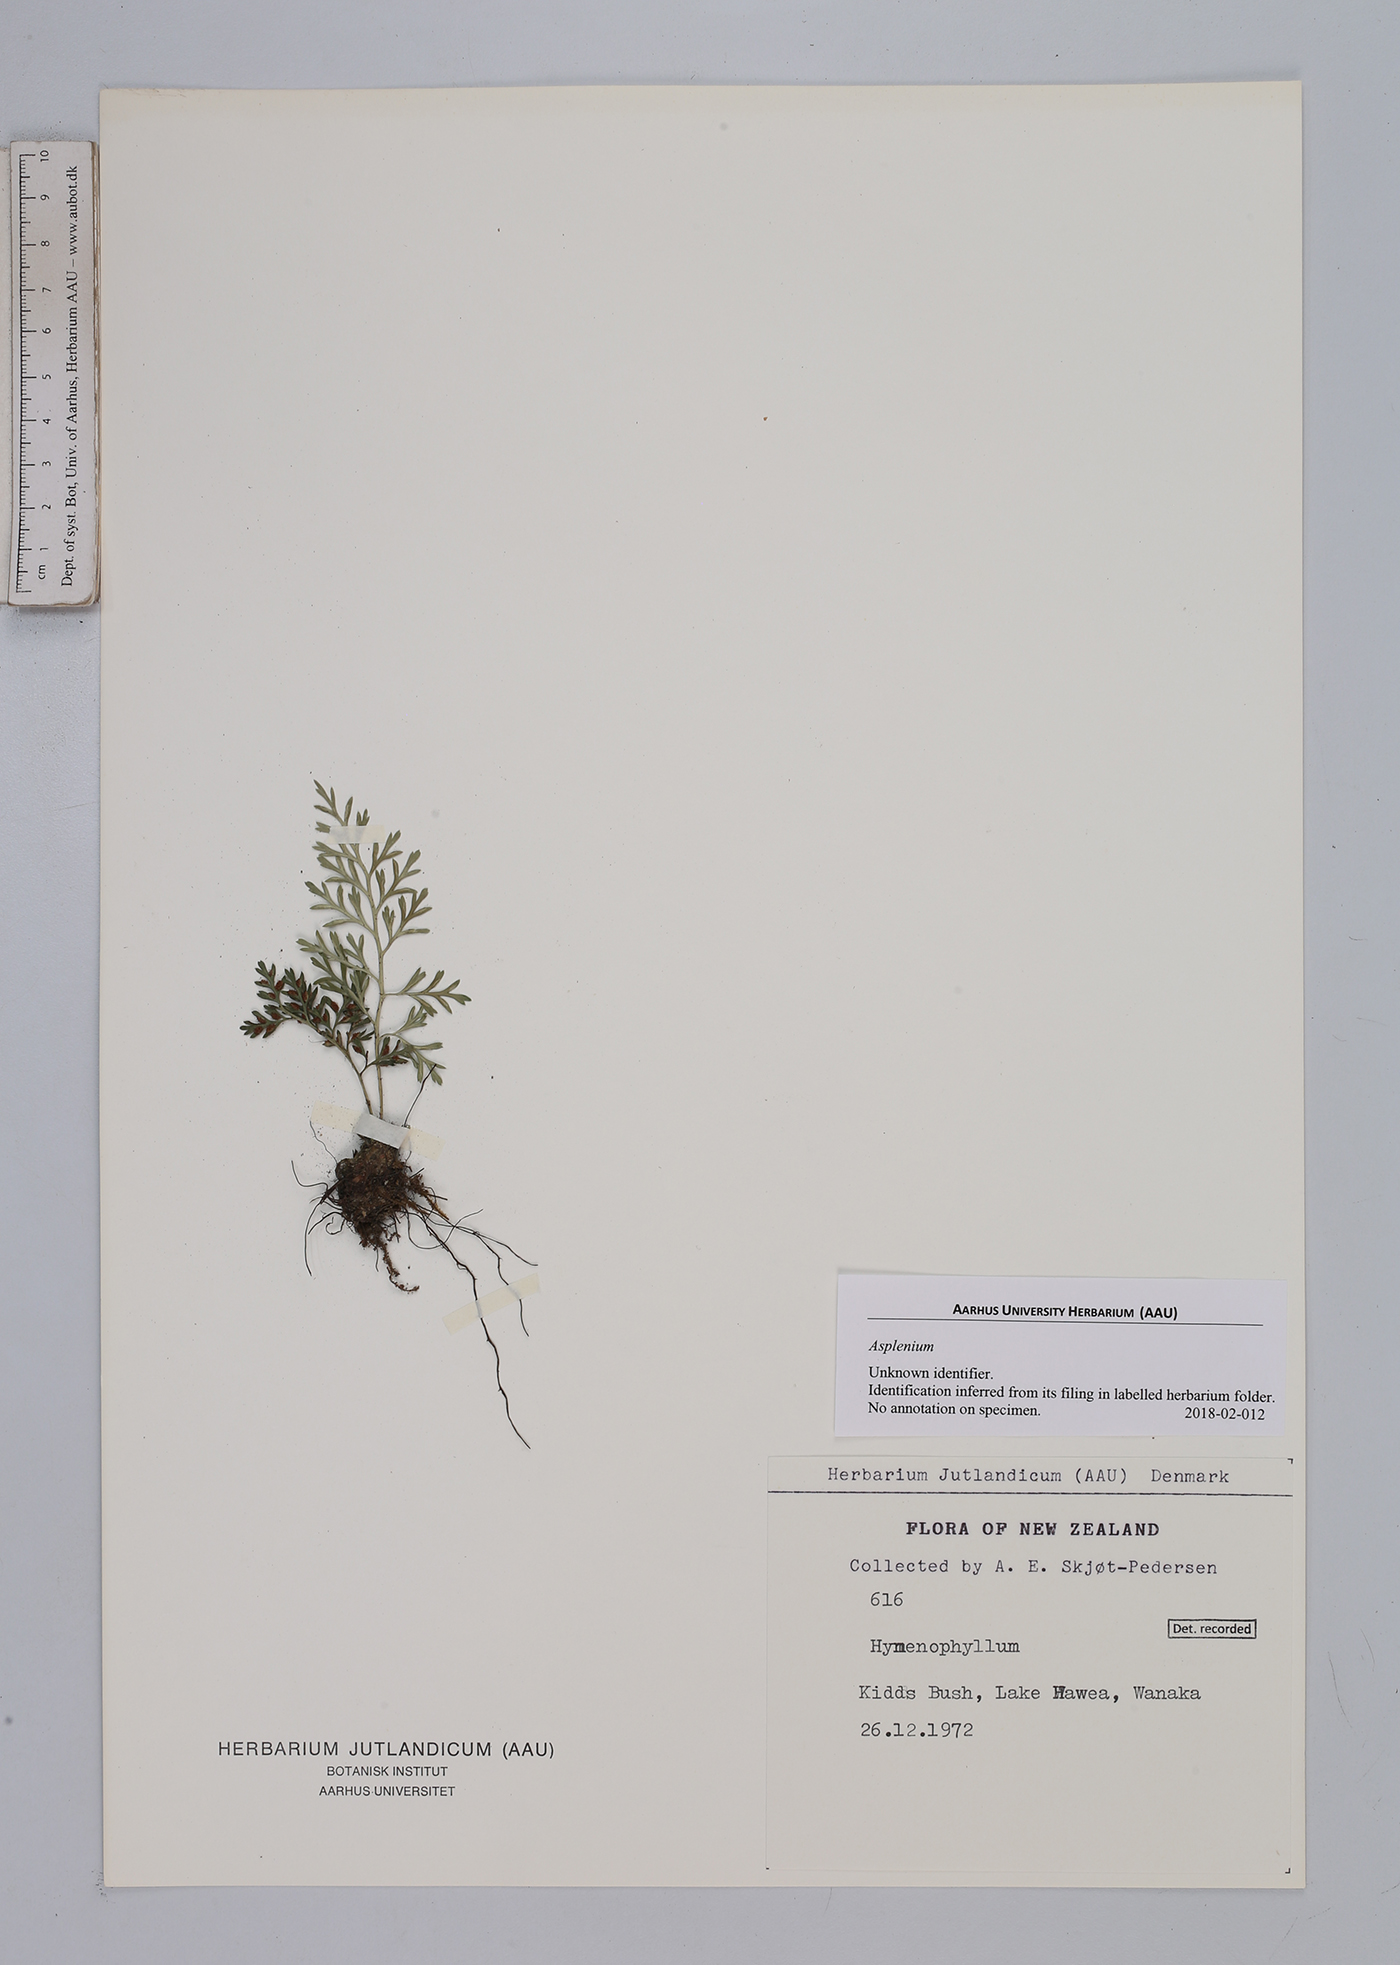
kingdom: Plantae
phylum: Tracheophyta
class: Polypodiopsida
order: Polypodiales
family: Aspleniaceae
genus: Asplenium
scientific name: Asplenium
